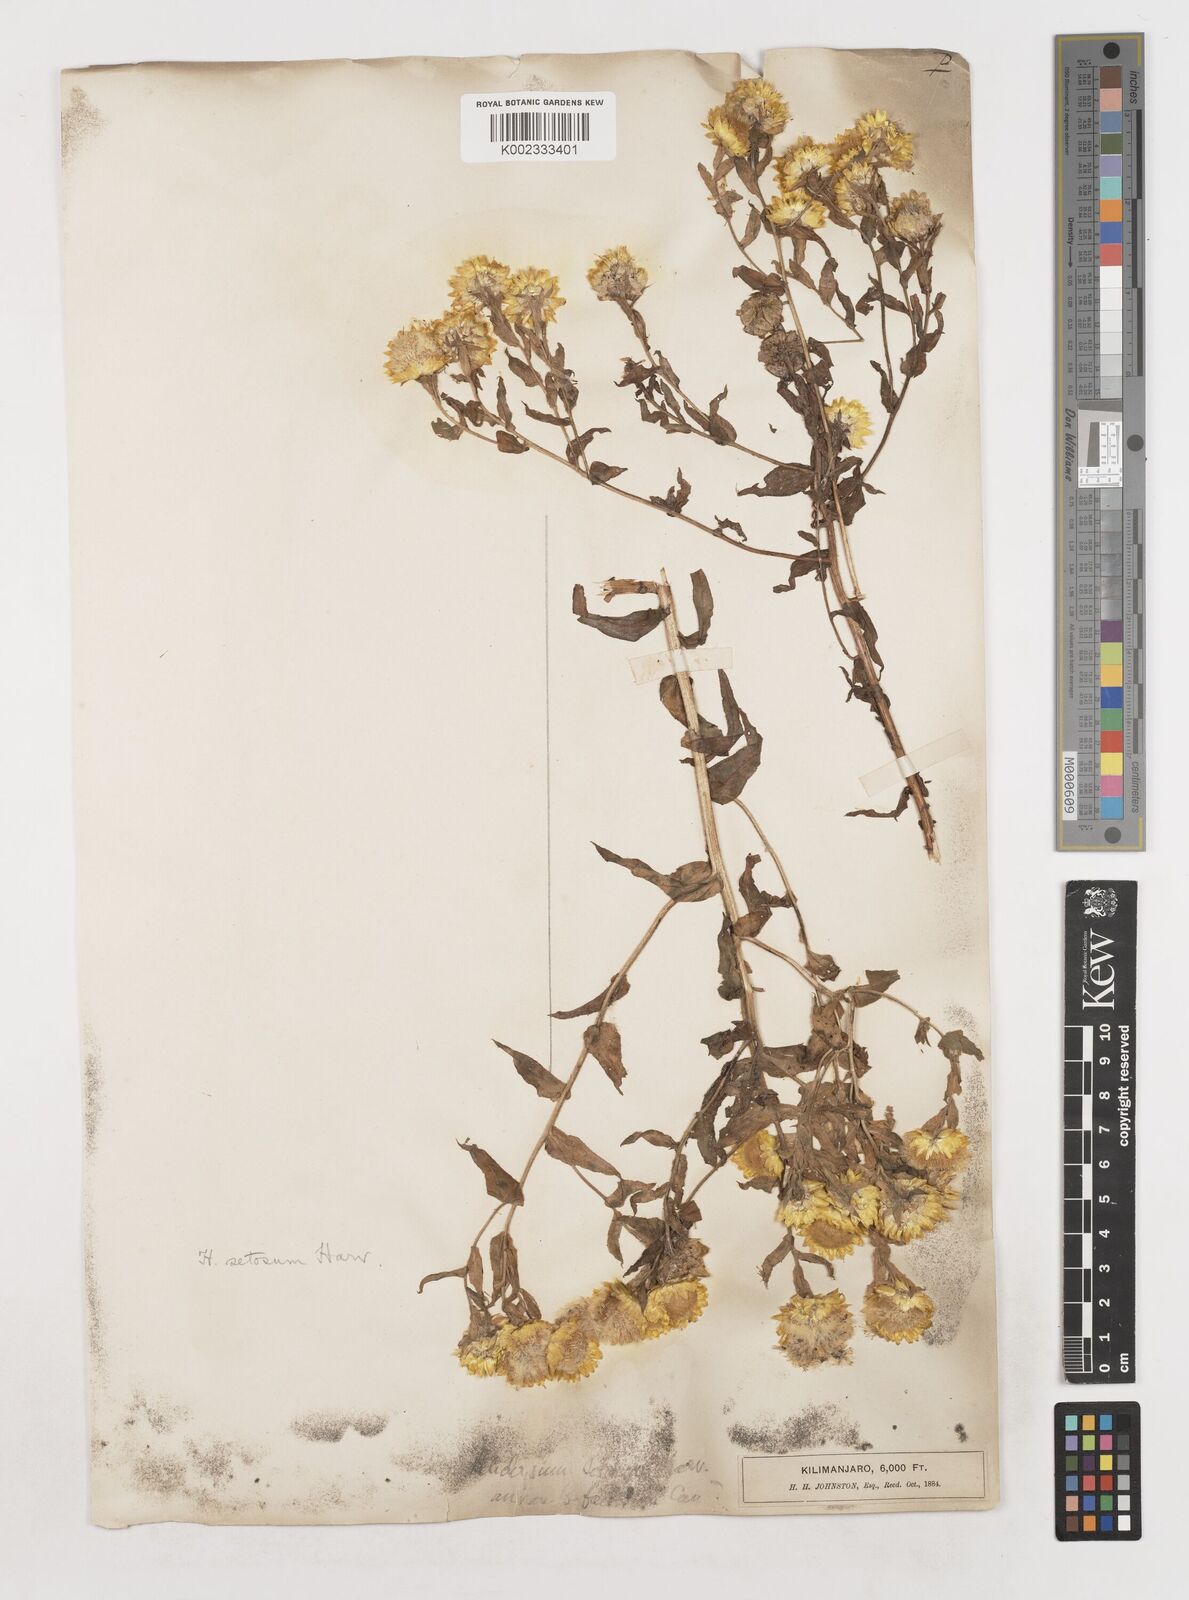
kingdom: Plantae
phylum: Tracheophyta
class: Magnoliopsida
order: Asterales
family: Asteraceae
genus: Helichrysum
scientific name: Helichrysum setosum
